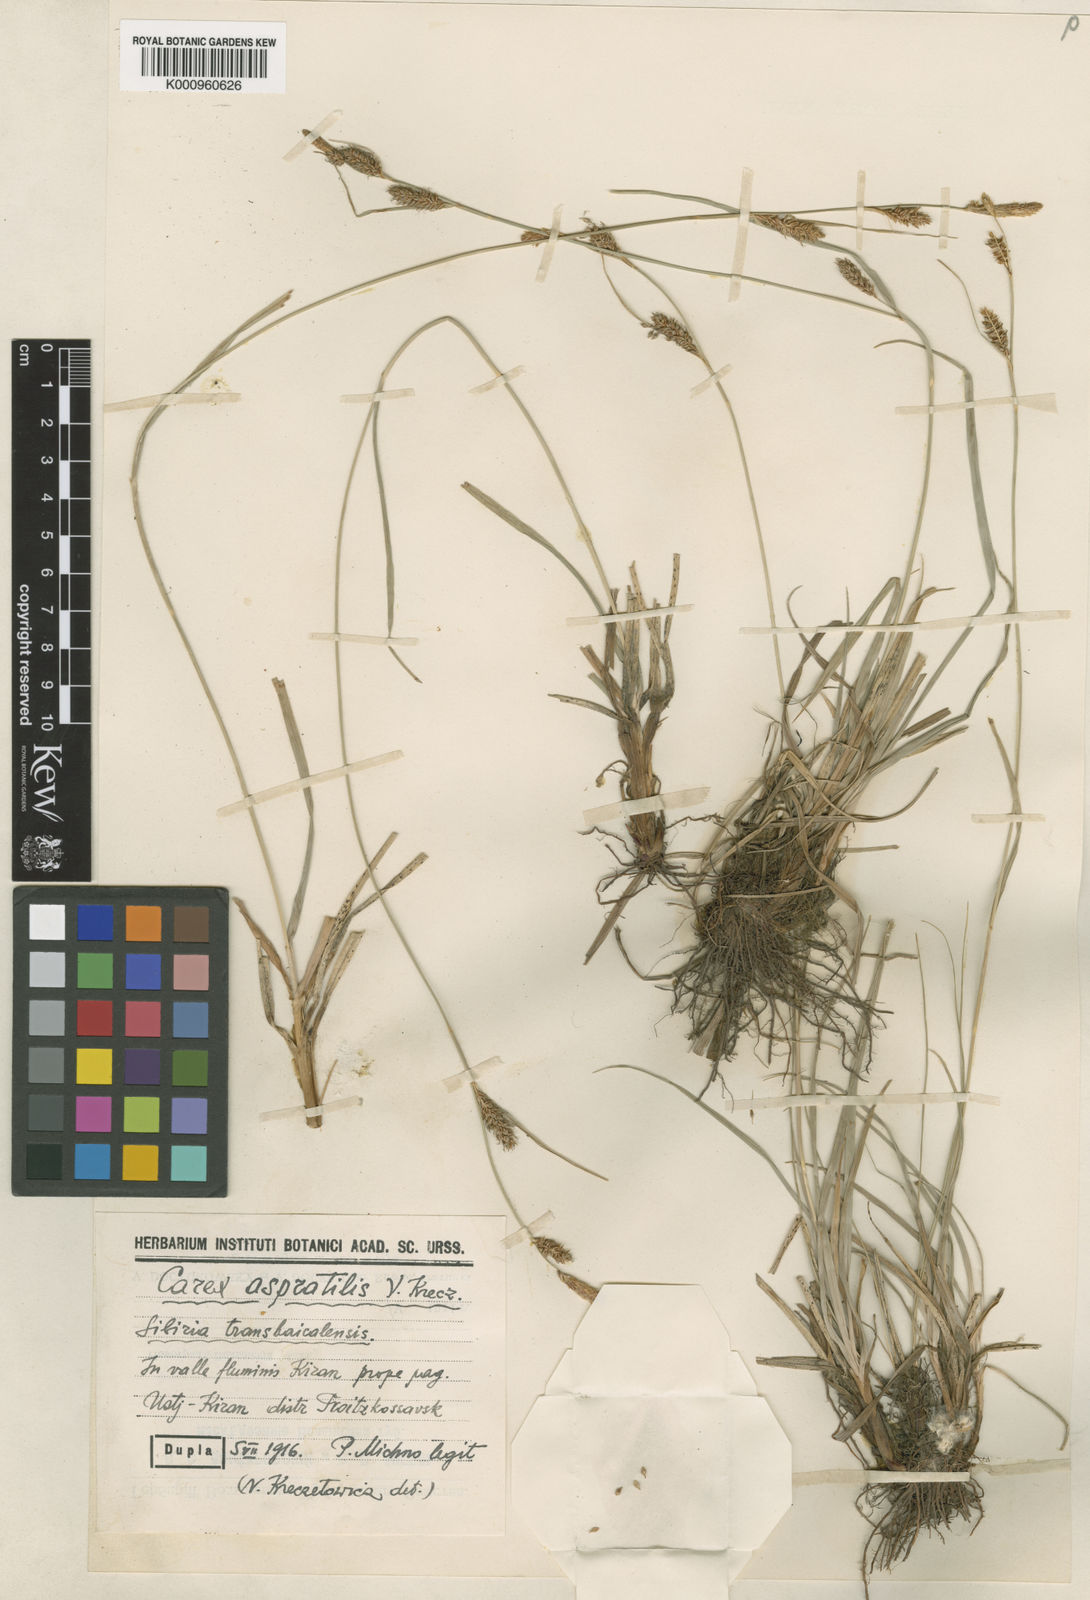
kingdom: Plantae
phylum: Tracheophyta
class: Liliopsida
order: Poales
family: Cyperaceae
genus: Carex
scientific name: Carex diluta
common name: Sedge
